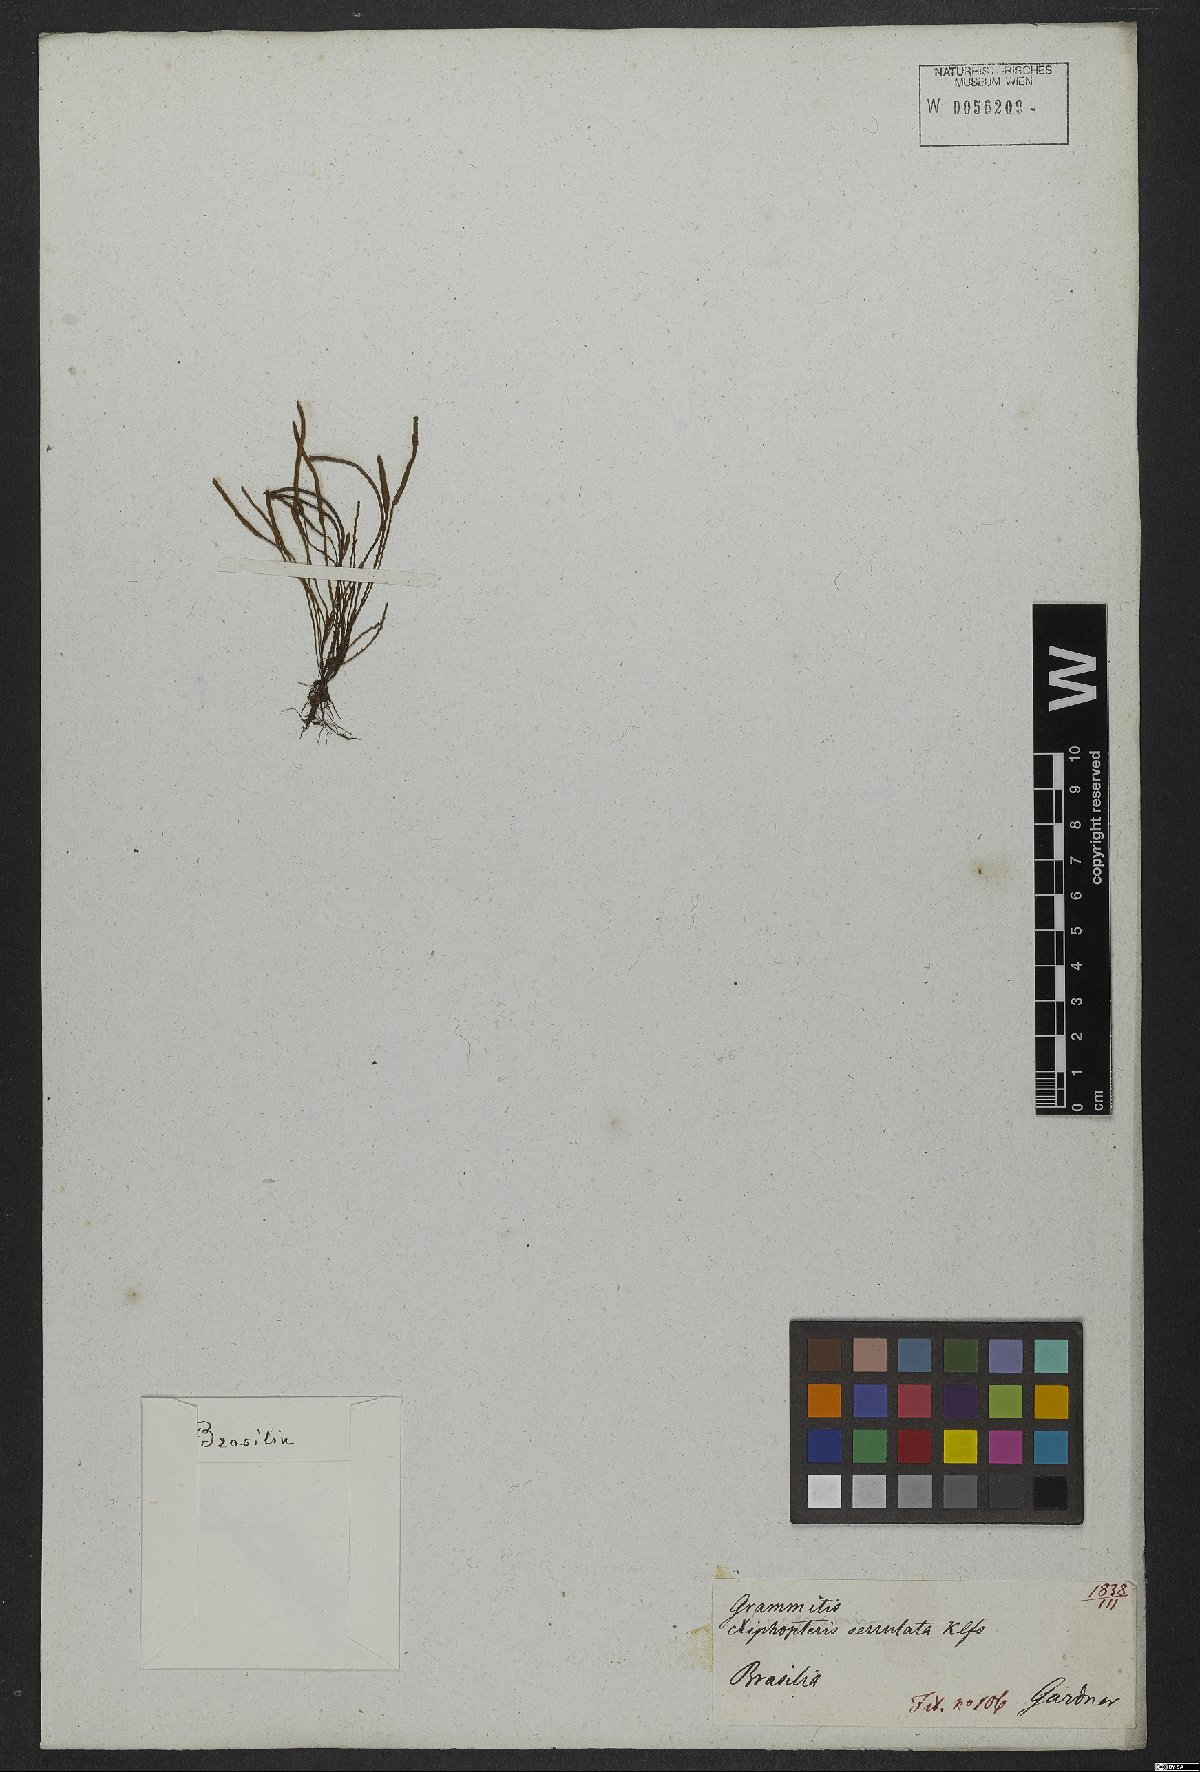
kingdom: Plantae
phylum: Tracheophyta
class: Polypodiopsida
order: Polypodiales
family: Polypodiaceae
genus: Cochlidium
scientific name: Cochlidium serrulatum
